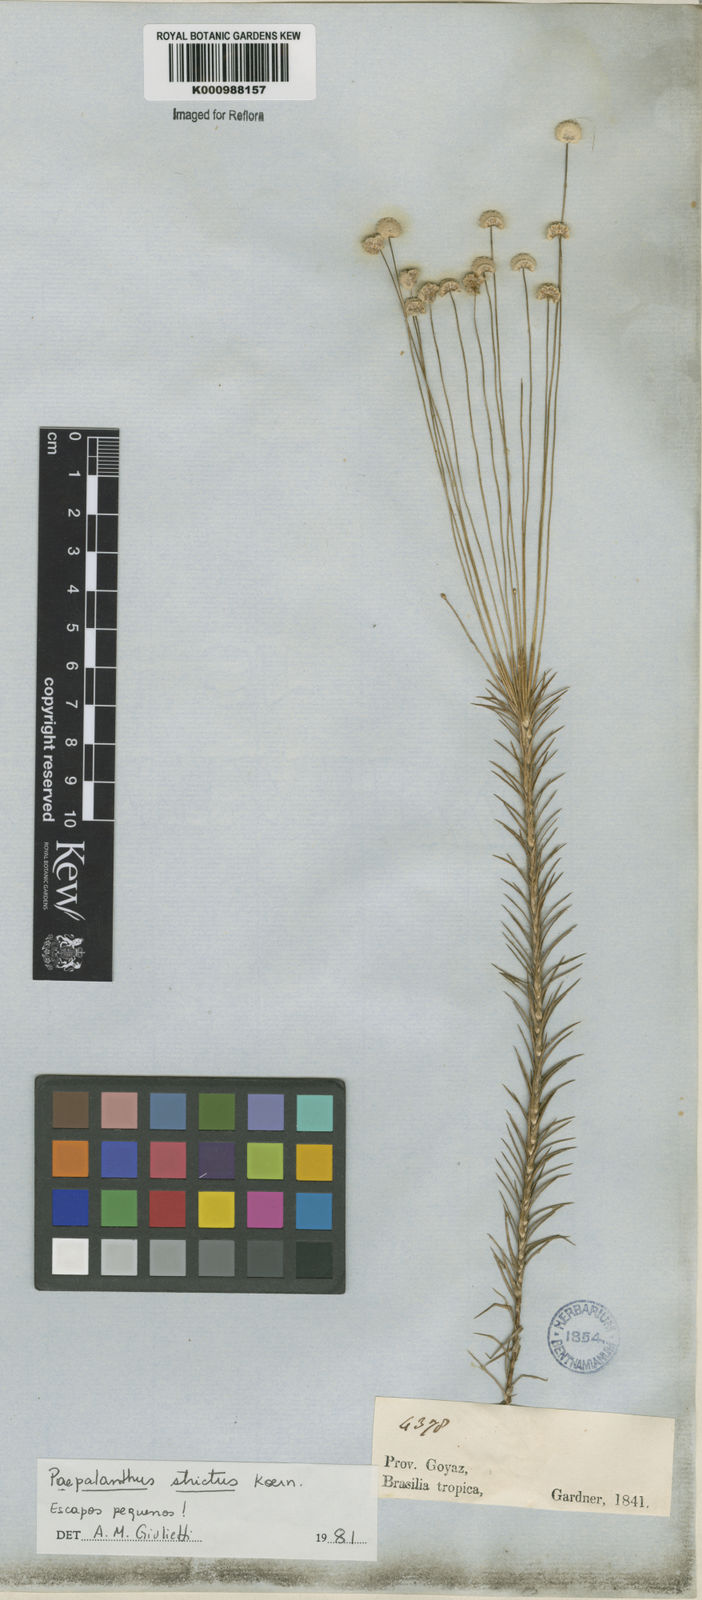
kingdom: Plantae
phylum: Tracheophyta
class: Liliopsida
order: Poales
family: Eriocaulaceae
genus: Paepalanthus
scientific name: Paepalanthus
